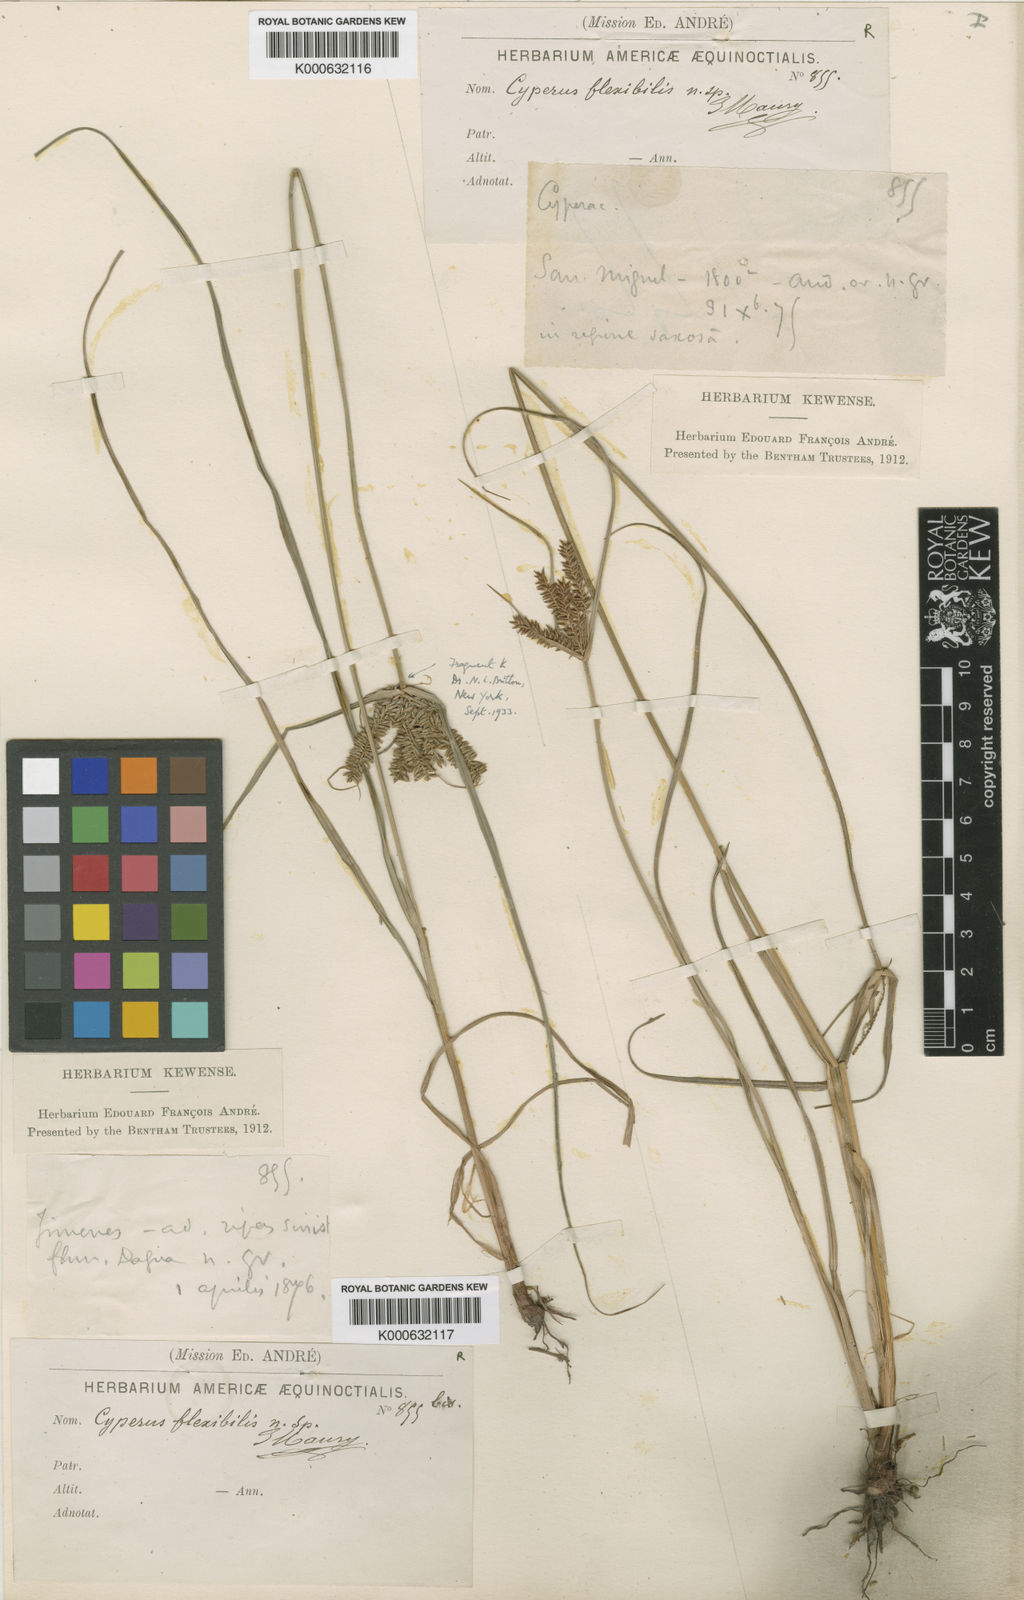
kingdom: Plantae
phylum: Tracheophyta
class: Liliopsida
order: Poales
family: Cyperaceae
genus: Cyperus
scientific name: Cyperus tenuis
